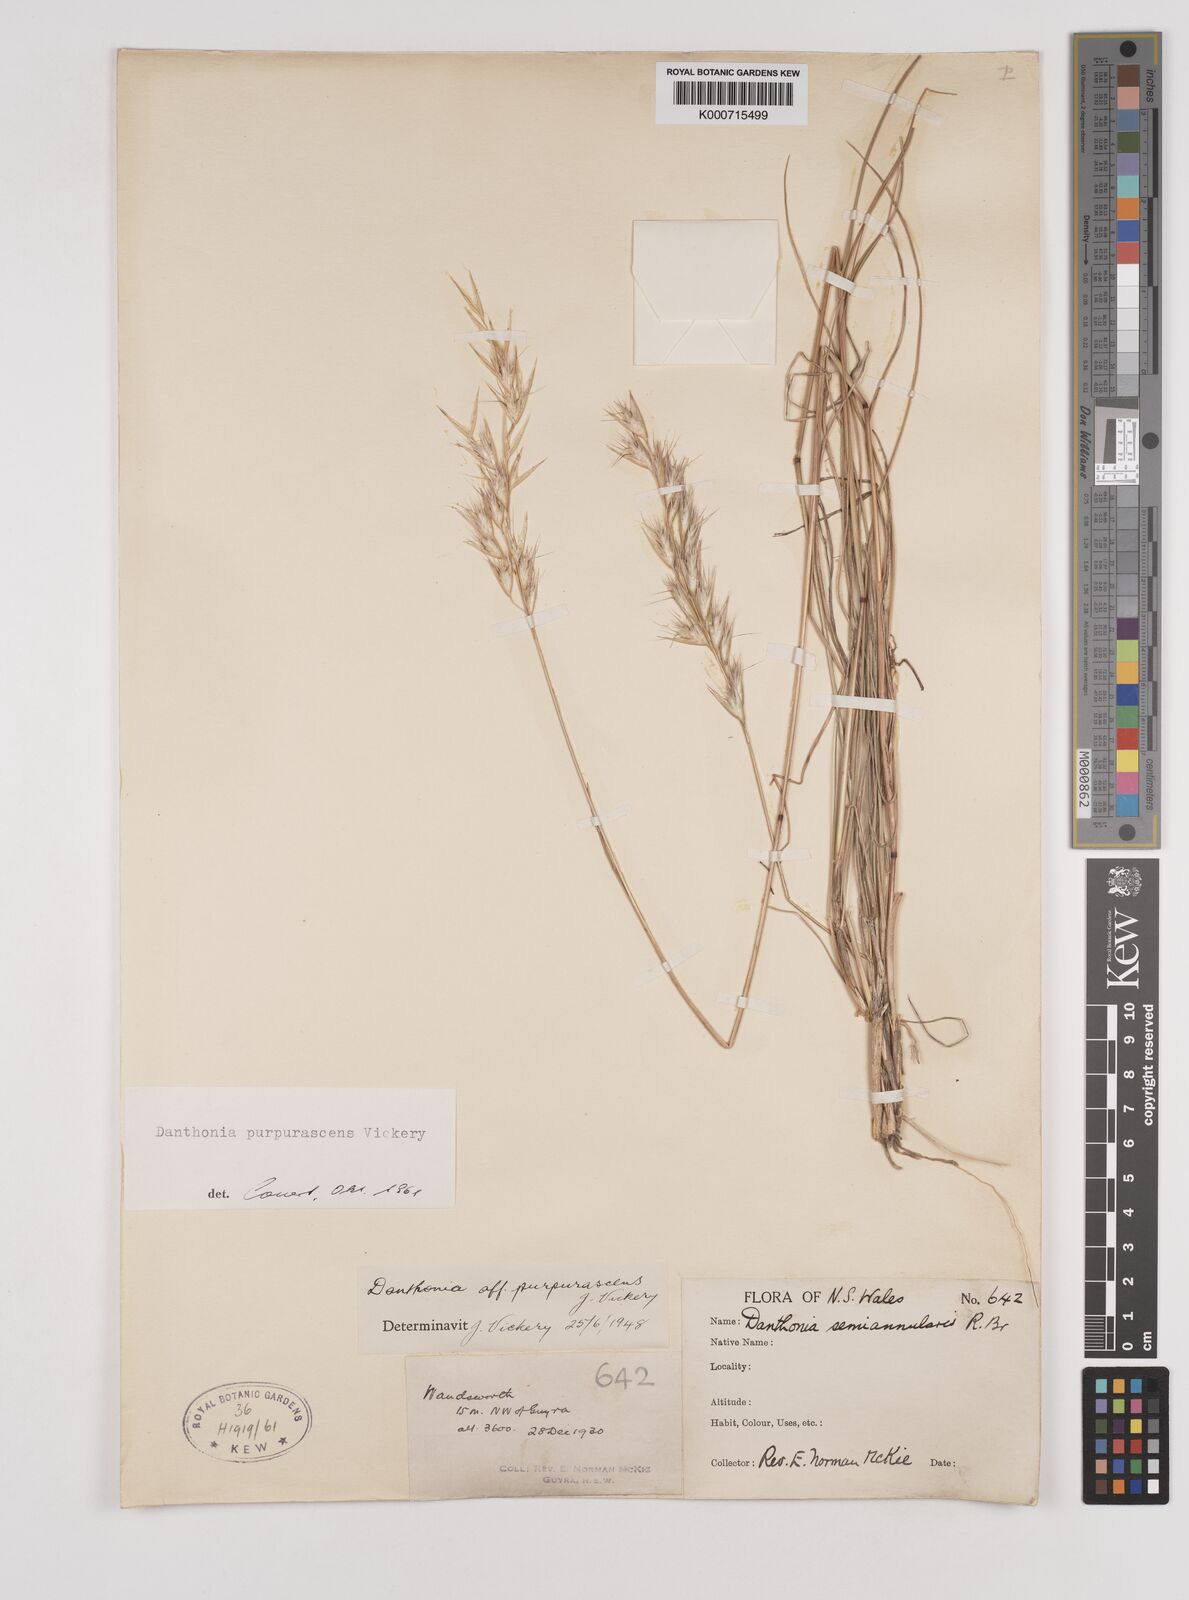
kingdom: Plantae
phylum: Tracheophyta
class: Liliopsida
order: Poales
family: Poaceae
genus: Rytidosperma
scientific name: Rytidosperma tenuius
